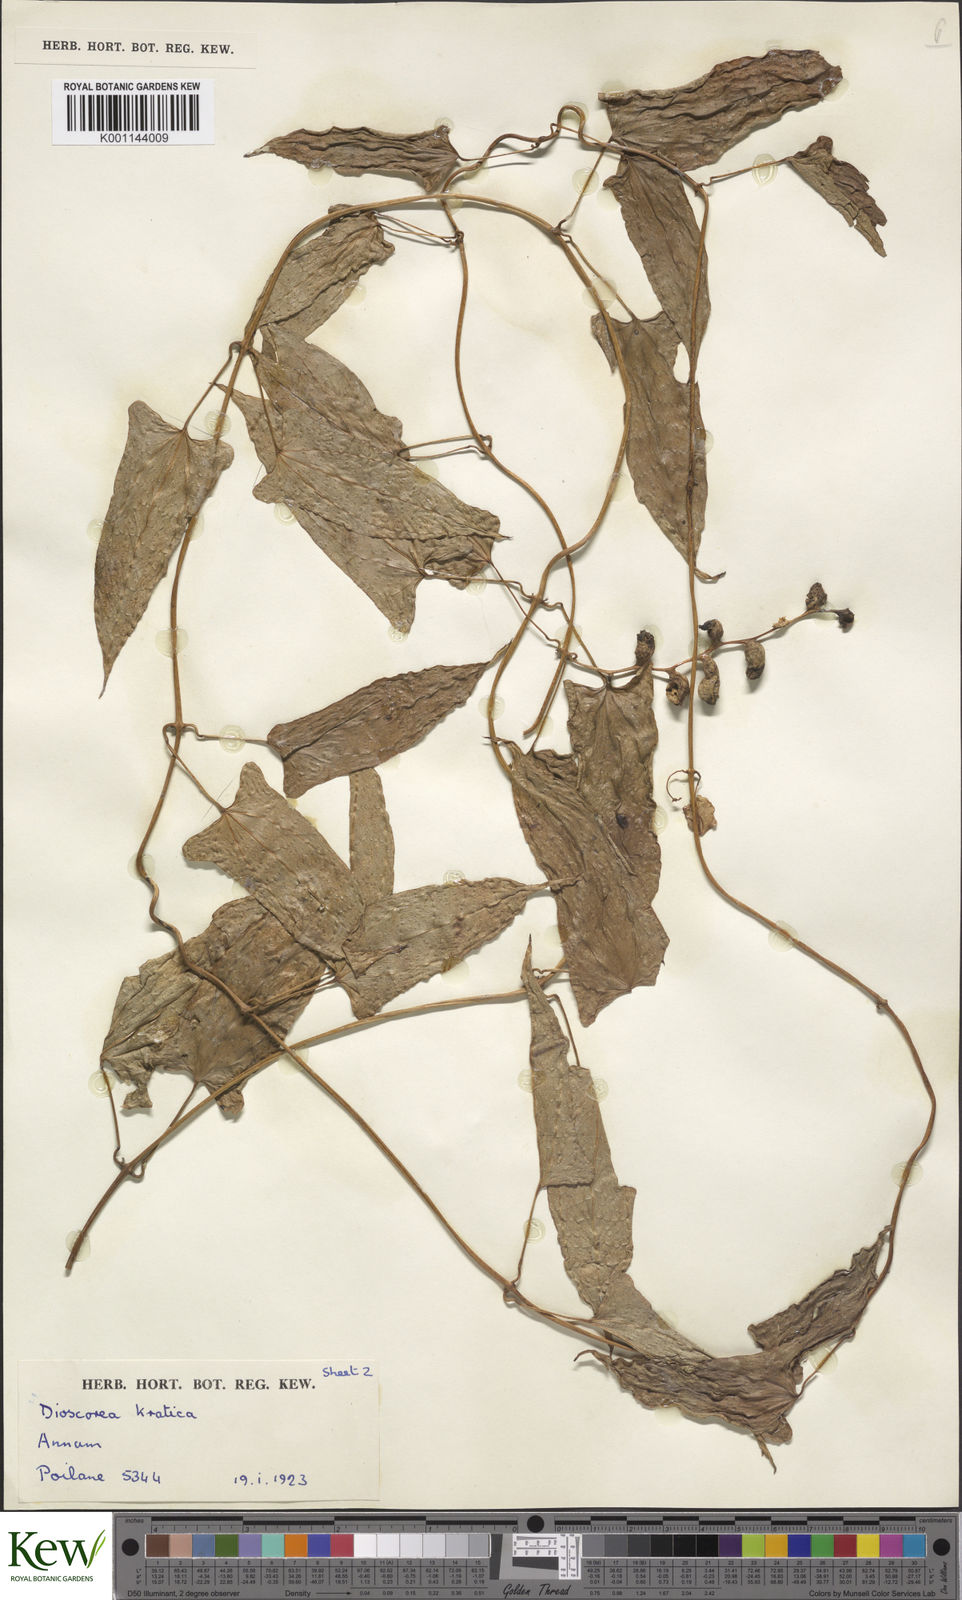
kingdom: Plantae
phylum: Tracheophyta
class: Liliopsida
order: Dioscoreales
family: Dioscoreaceae
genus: Dioscorea
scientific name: Dioscorea kratica
